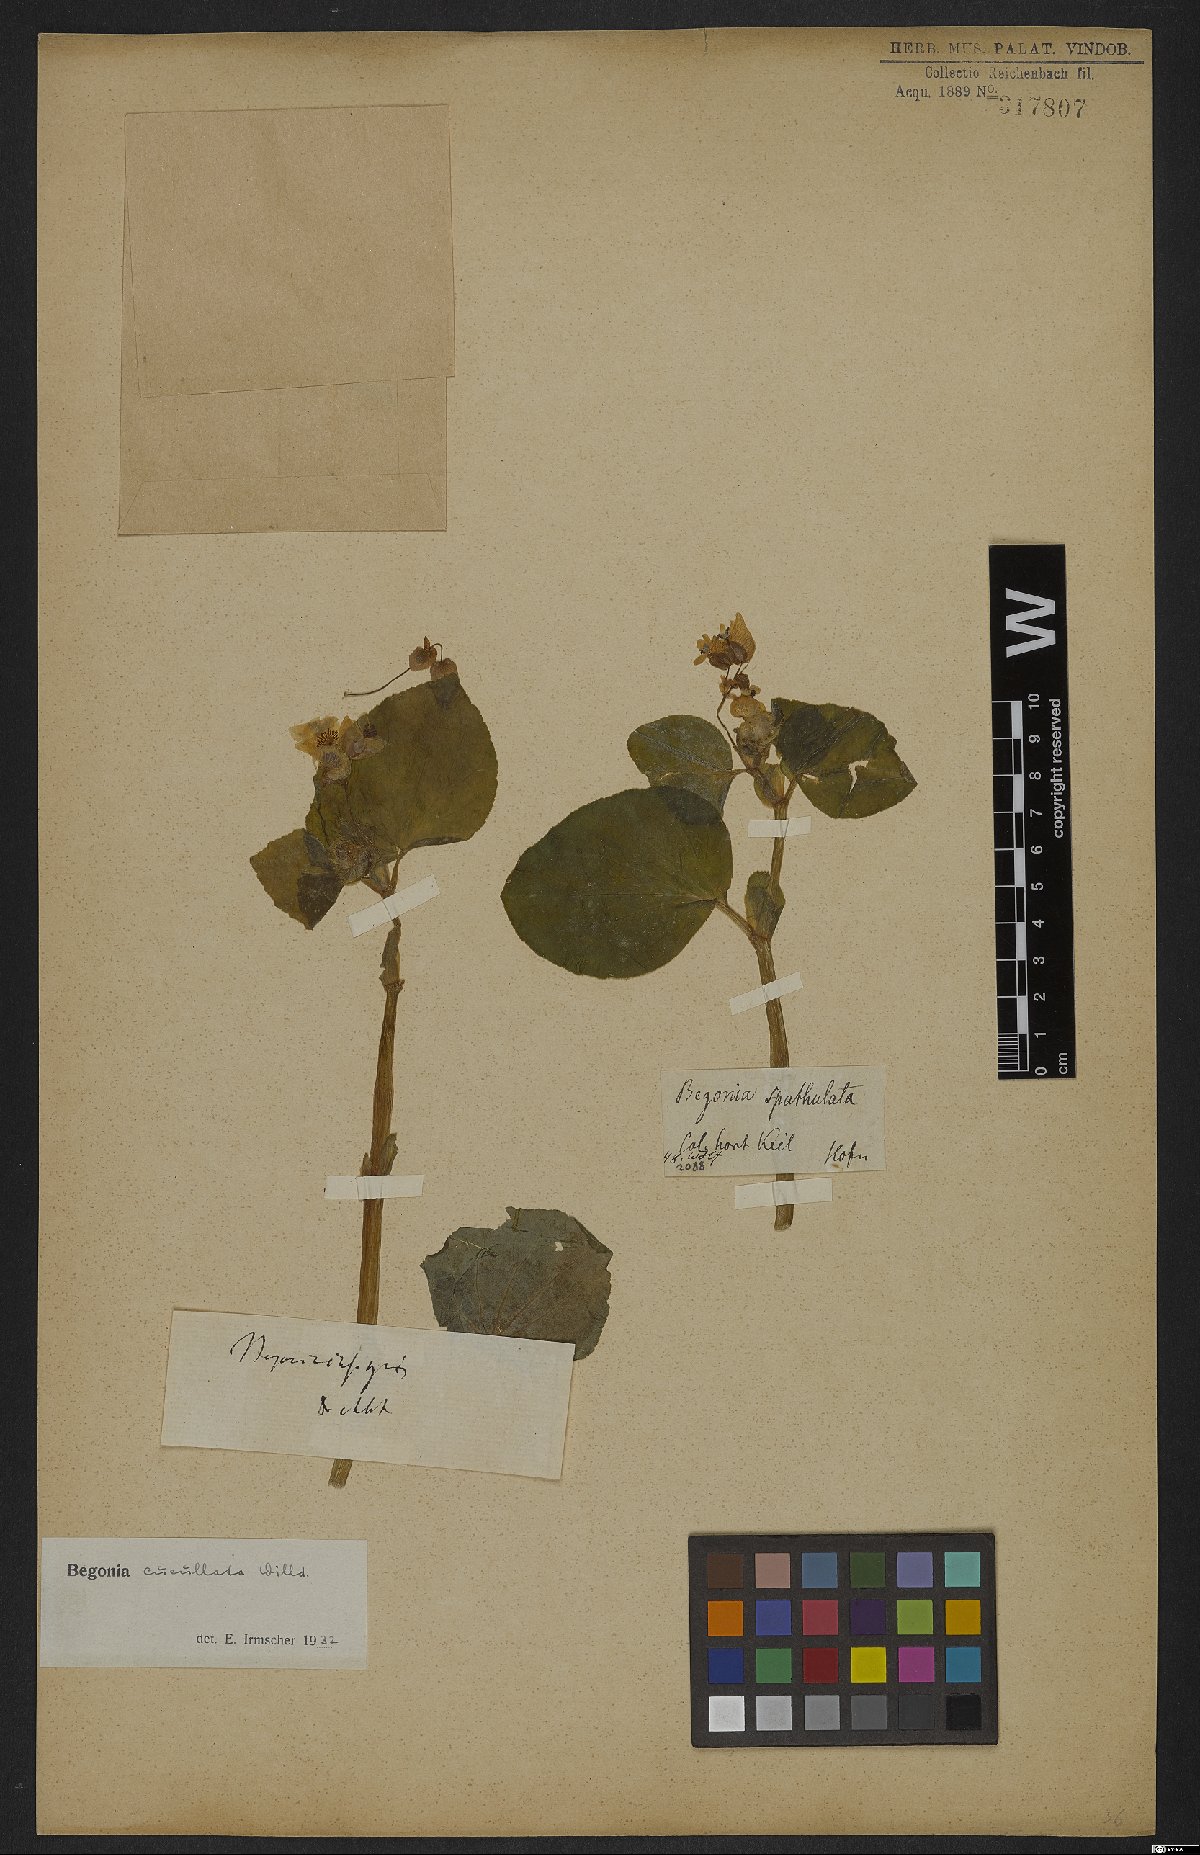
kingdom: Plantae
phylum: Tracheophyta
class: Magnoliopsida
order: Cucurbitales
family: Begoniaceae
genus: Begonia
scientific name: Begonia cucullata
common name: Clubbed begonia
